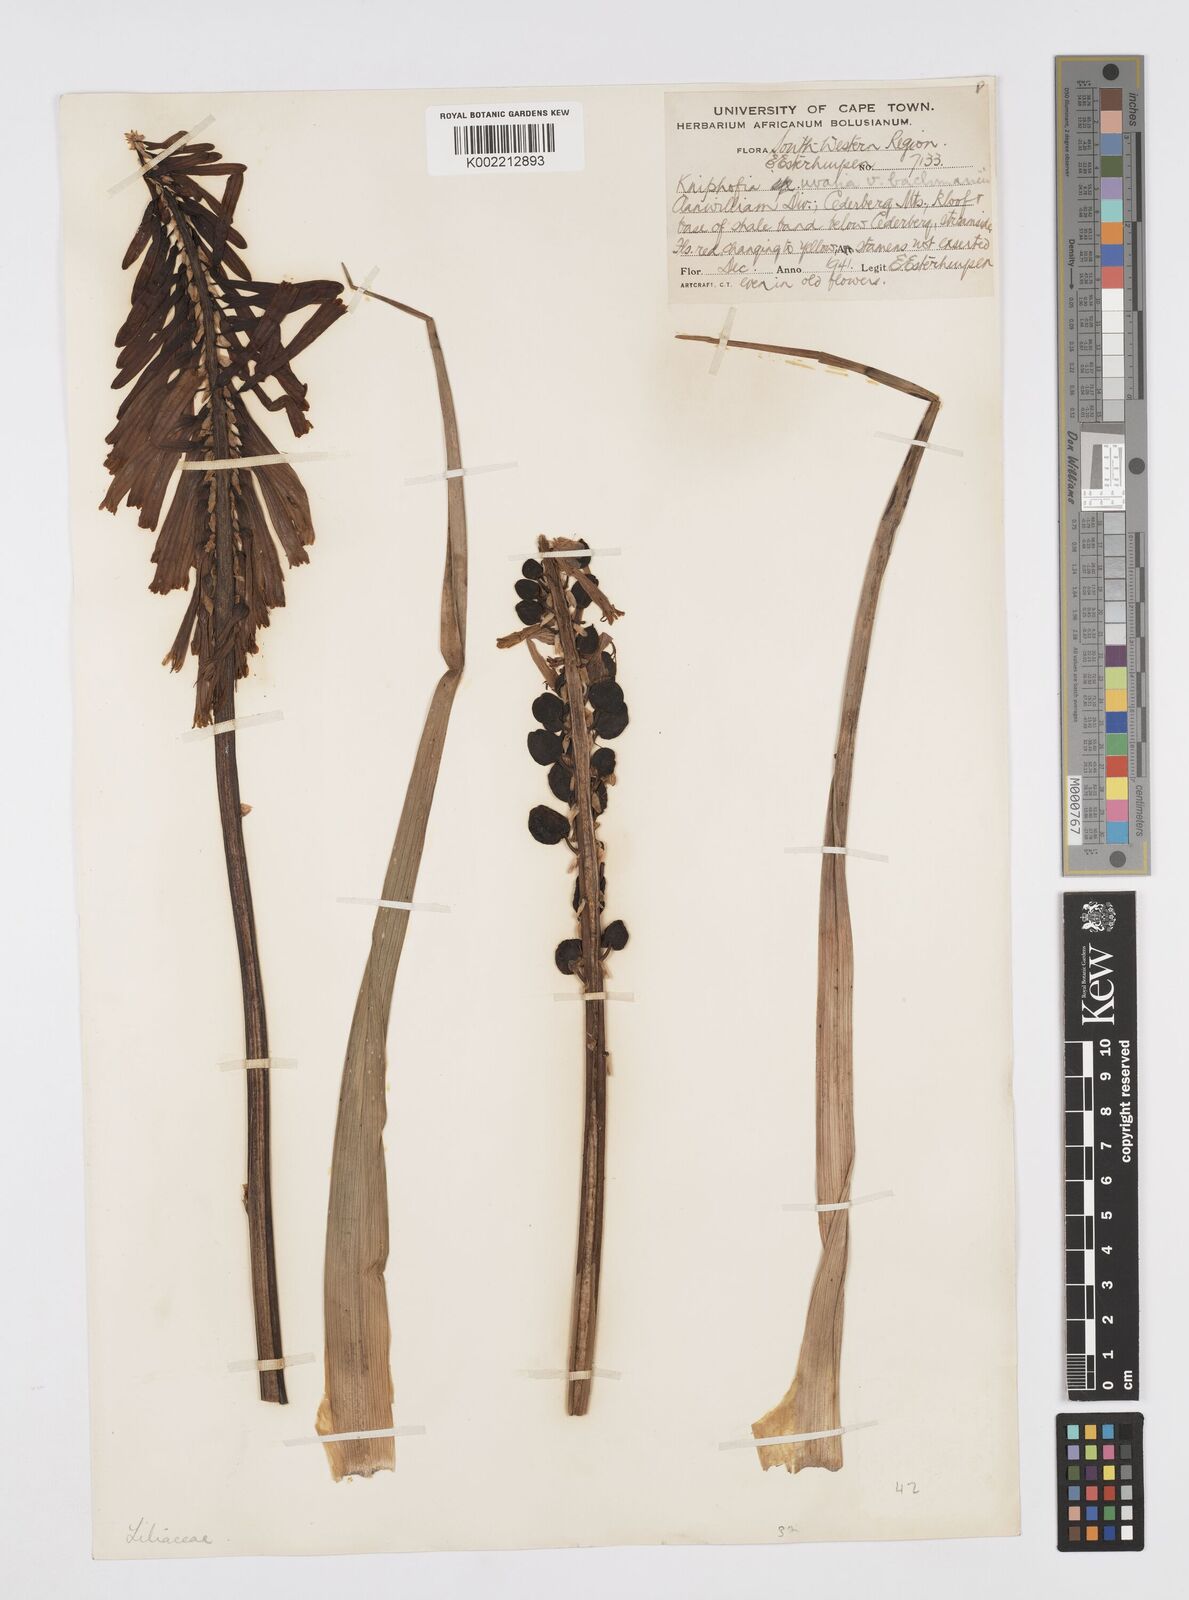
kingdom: Plantae
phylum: Tracheophyta
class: Liliopsida
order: Asparagales
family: Asphodelaceae
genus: Kniphofia
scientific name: Kniphofia uvaria
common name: Red-hot-poker
